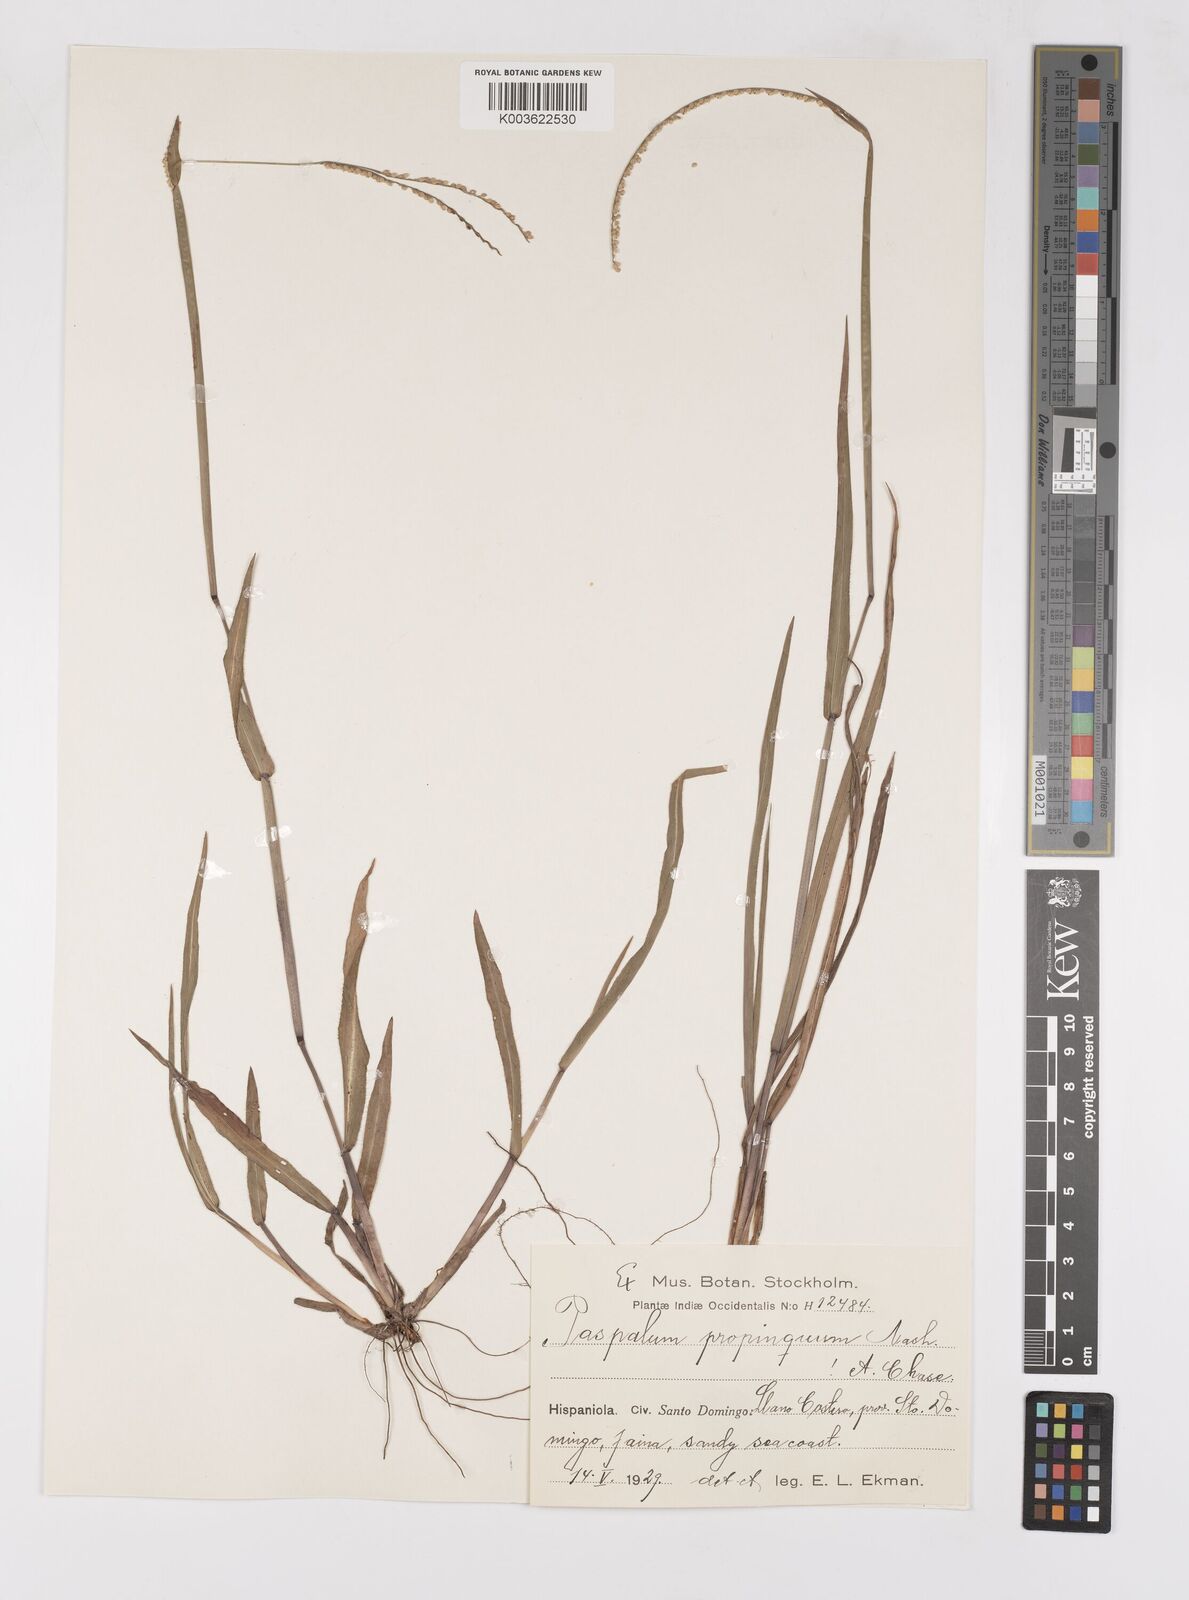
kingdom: Plantae
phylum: Tracheophyta
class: Liliopsida
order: Poales
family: Poaceae
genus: Paspalum
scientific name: Paspalum
